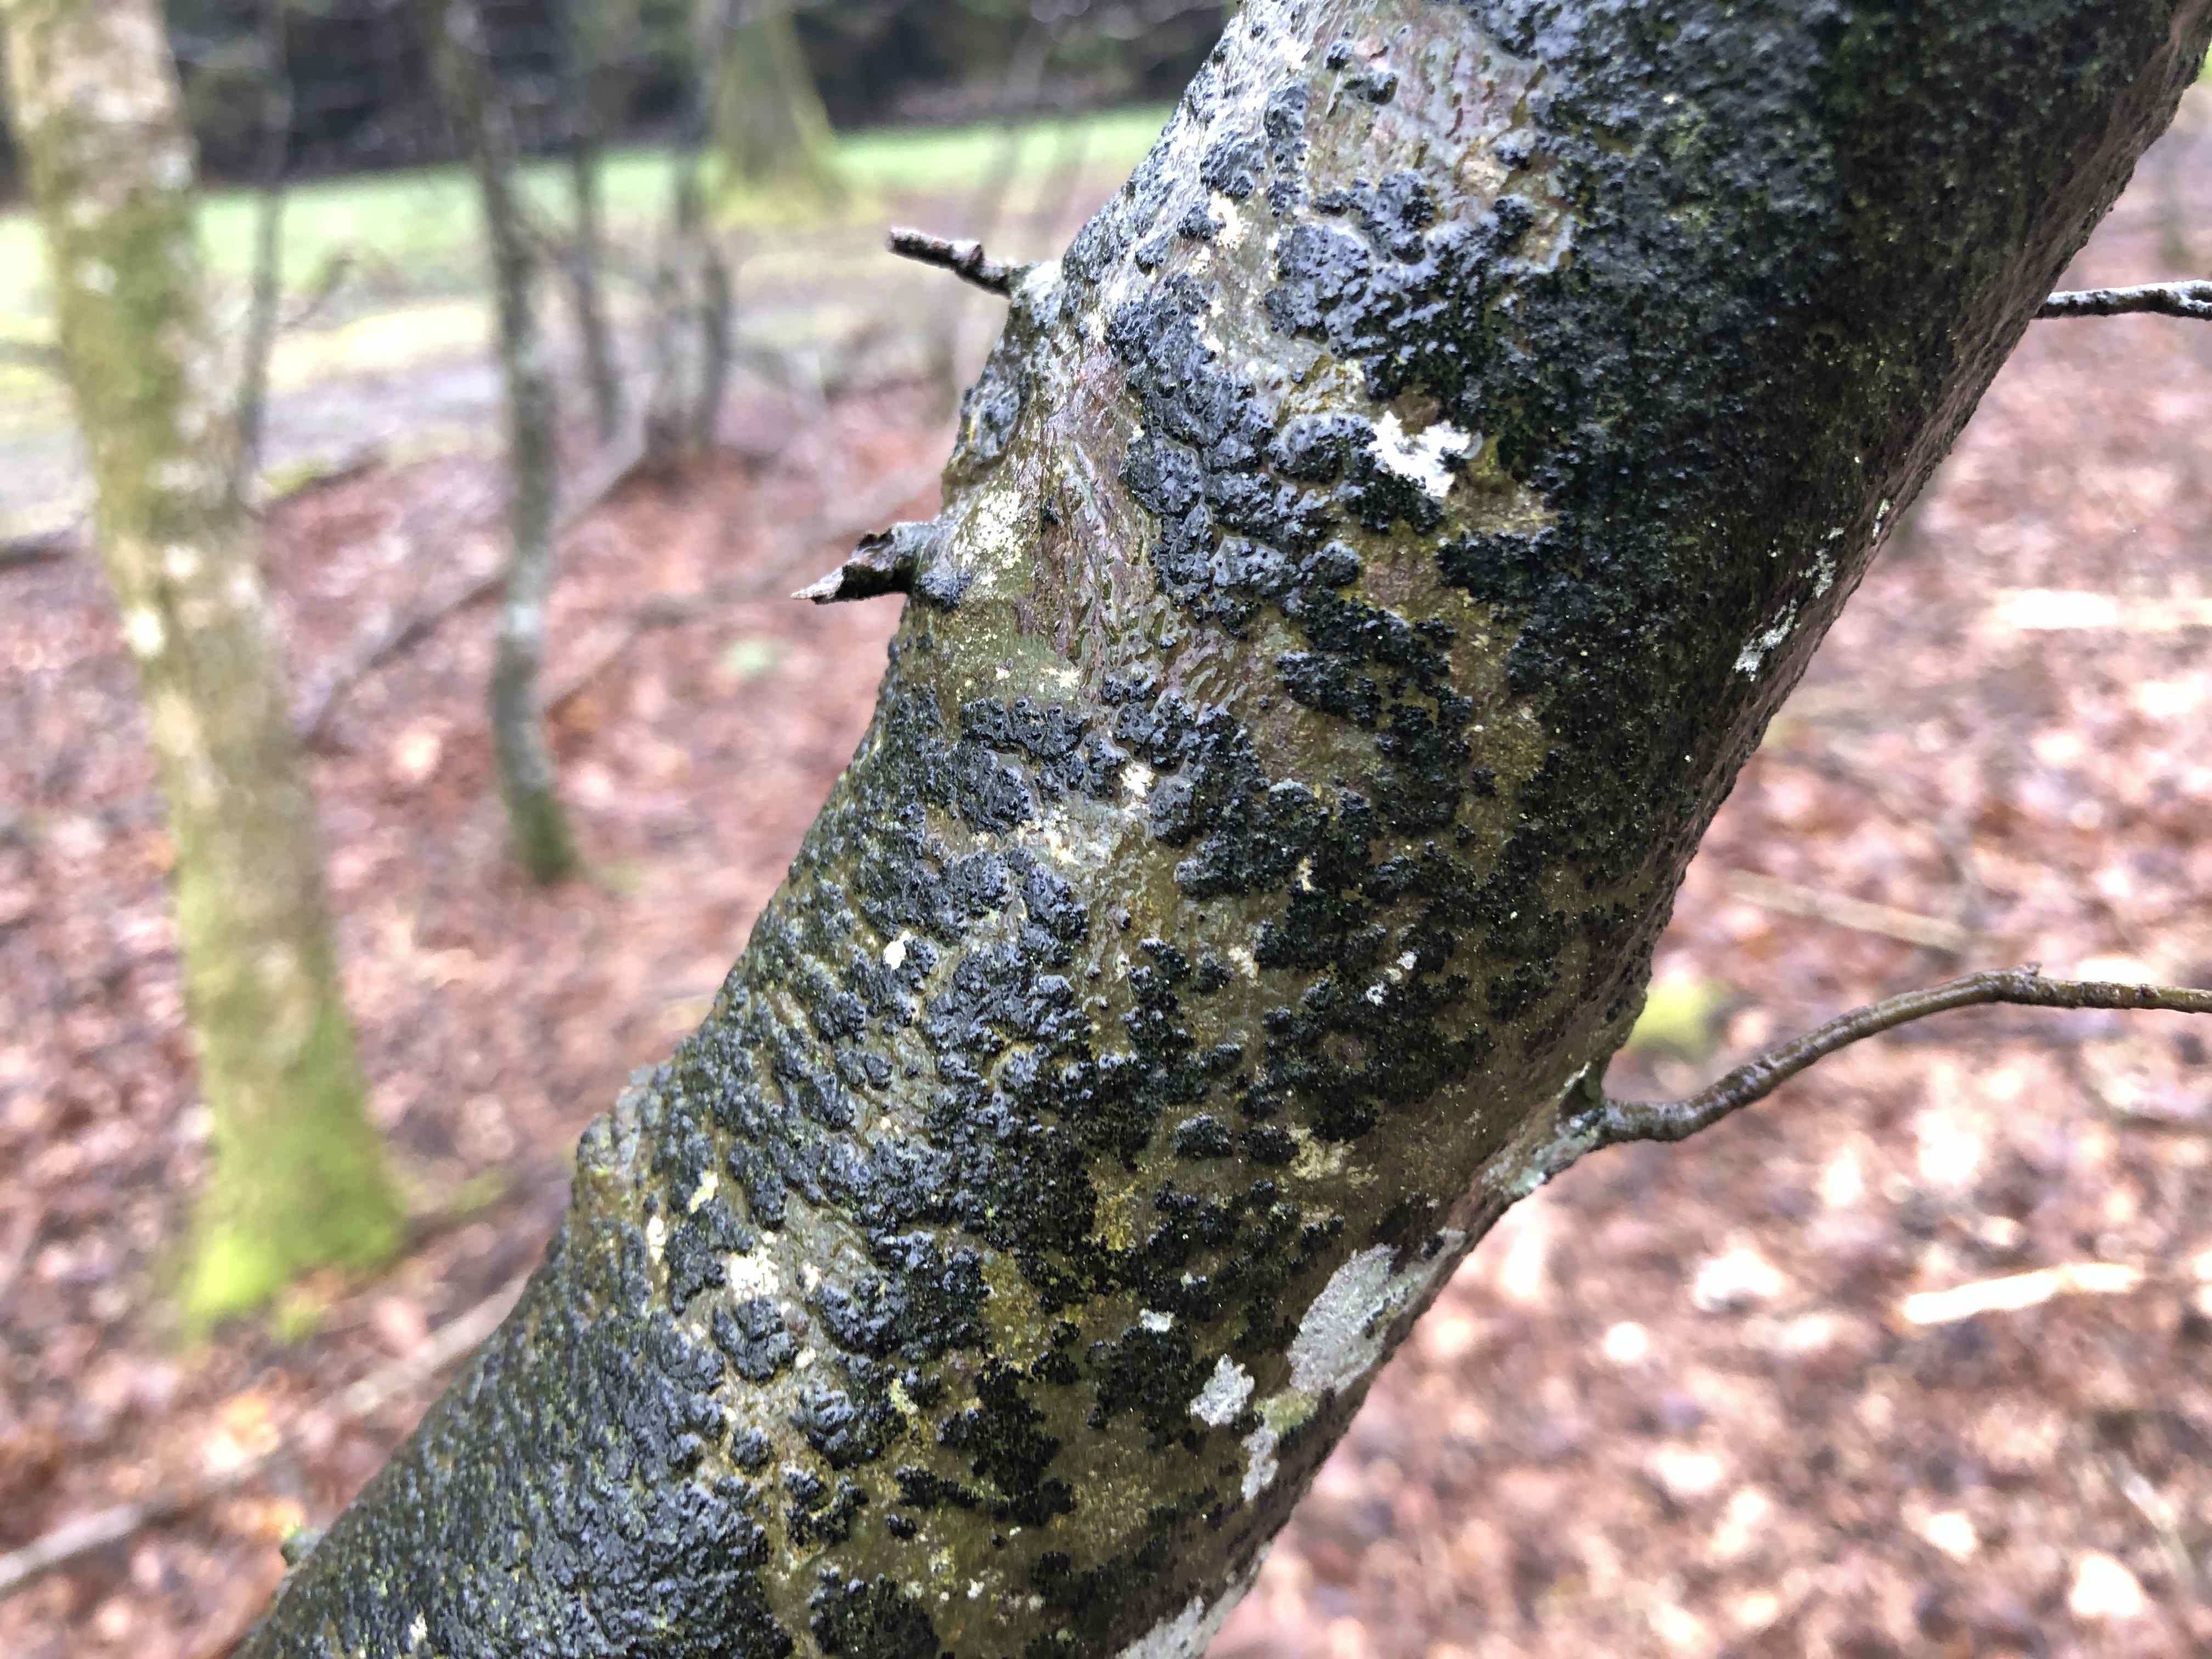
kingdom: Fungi
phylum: Ascomycota
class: Leotiomycetes
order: Rhytismatales
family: Ascodichaenaceae
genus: Ascodichaena
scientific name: Ascodichaena rugosa
